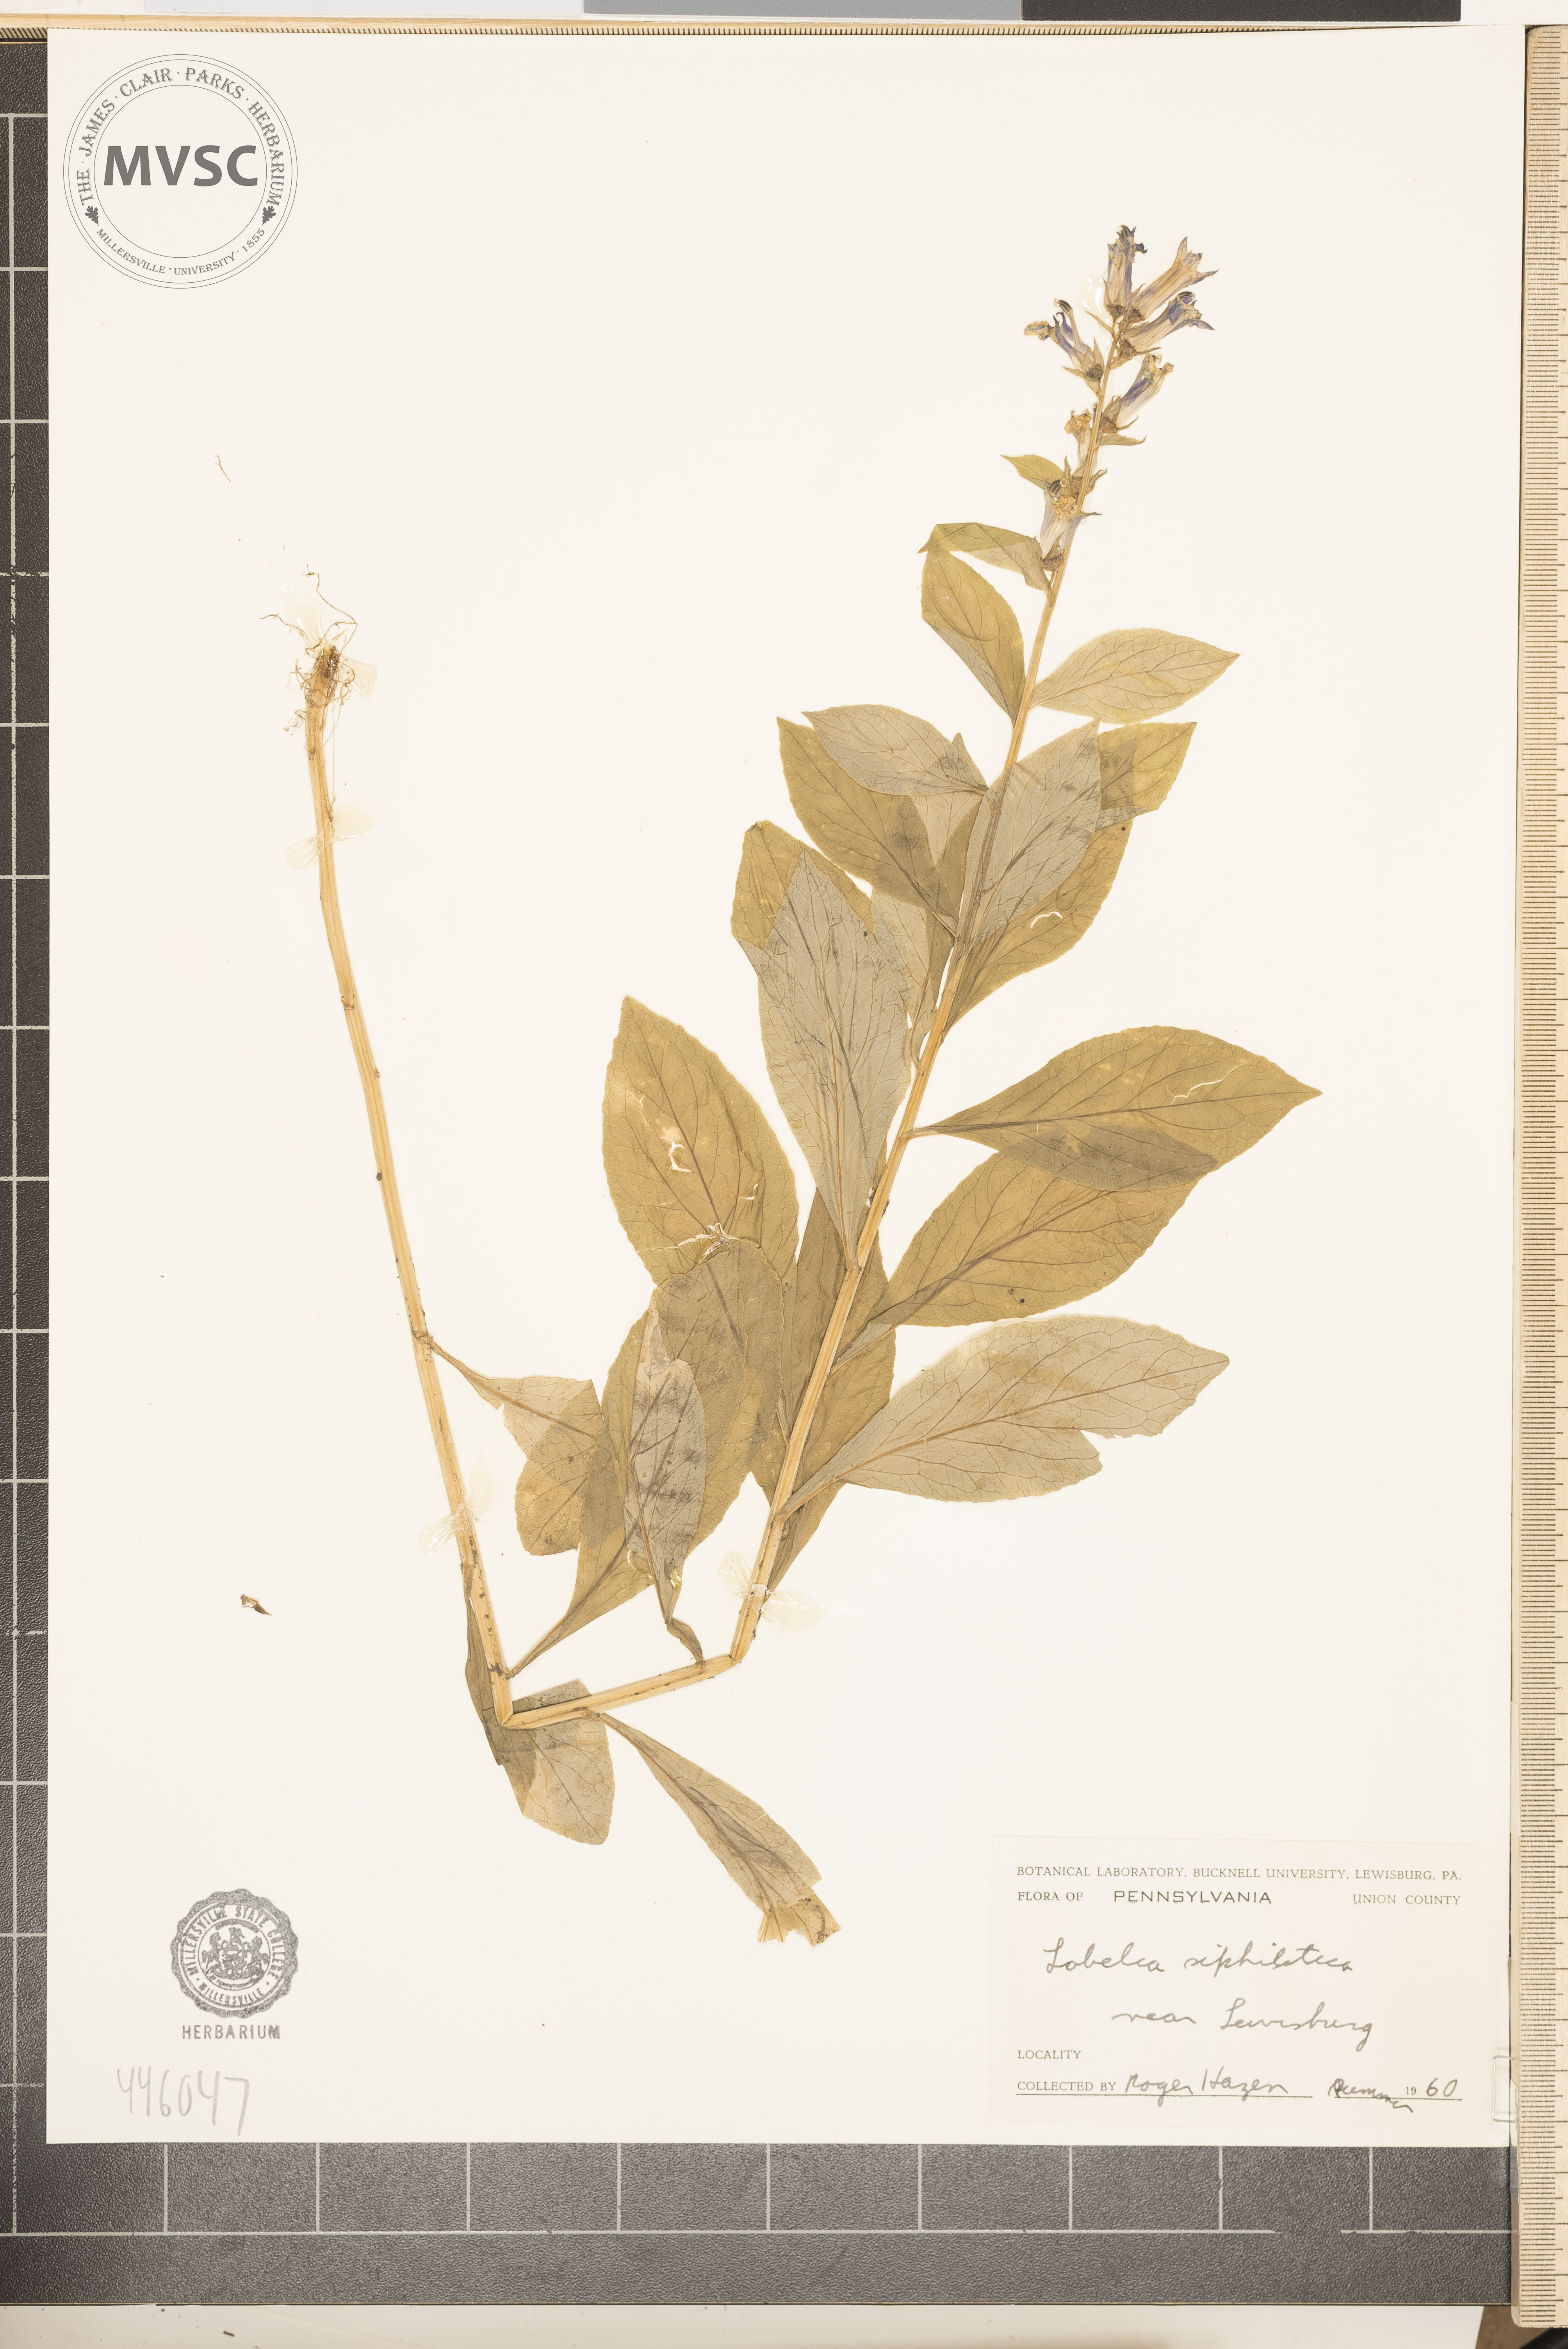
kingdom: Plantae
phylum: Tracheophyta
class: Magnoliopsida
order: Asterales
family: Campanulaceae
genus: Lobelia
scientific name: Lobelia siphilitica
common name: Great lobelia
